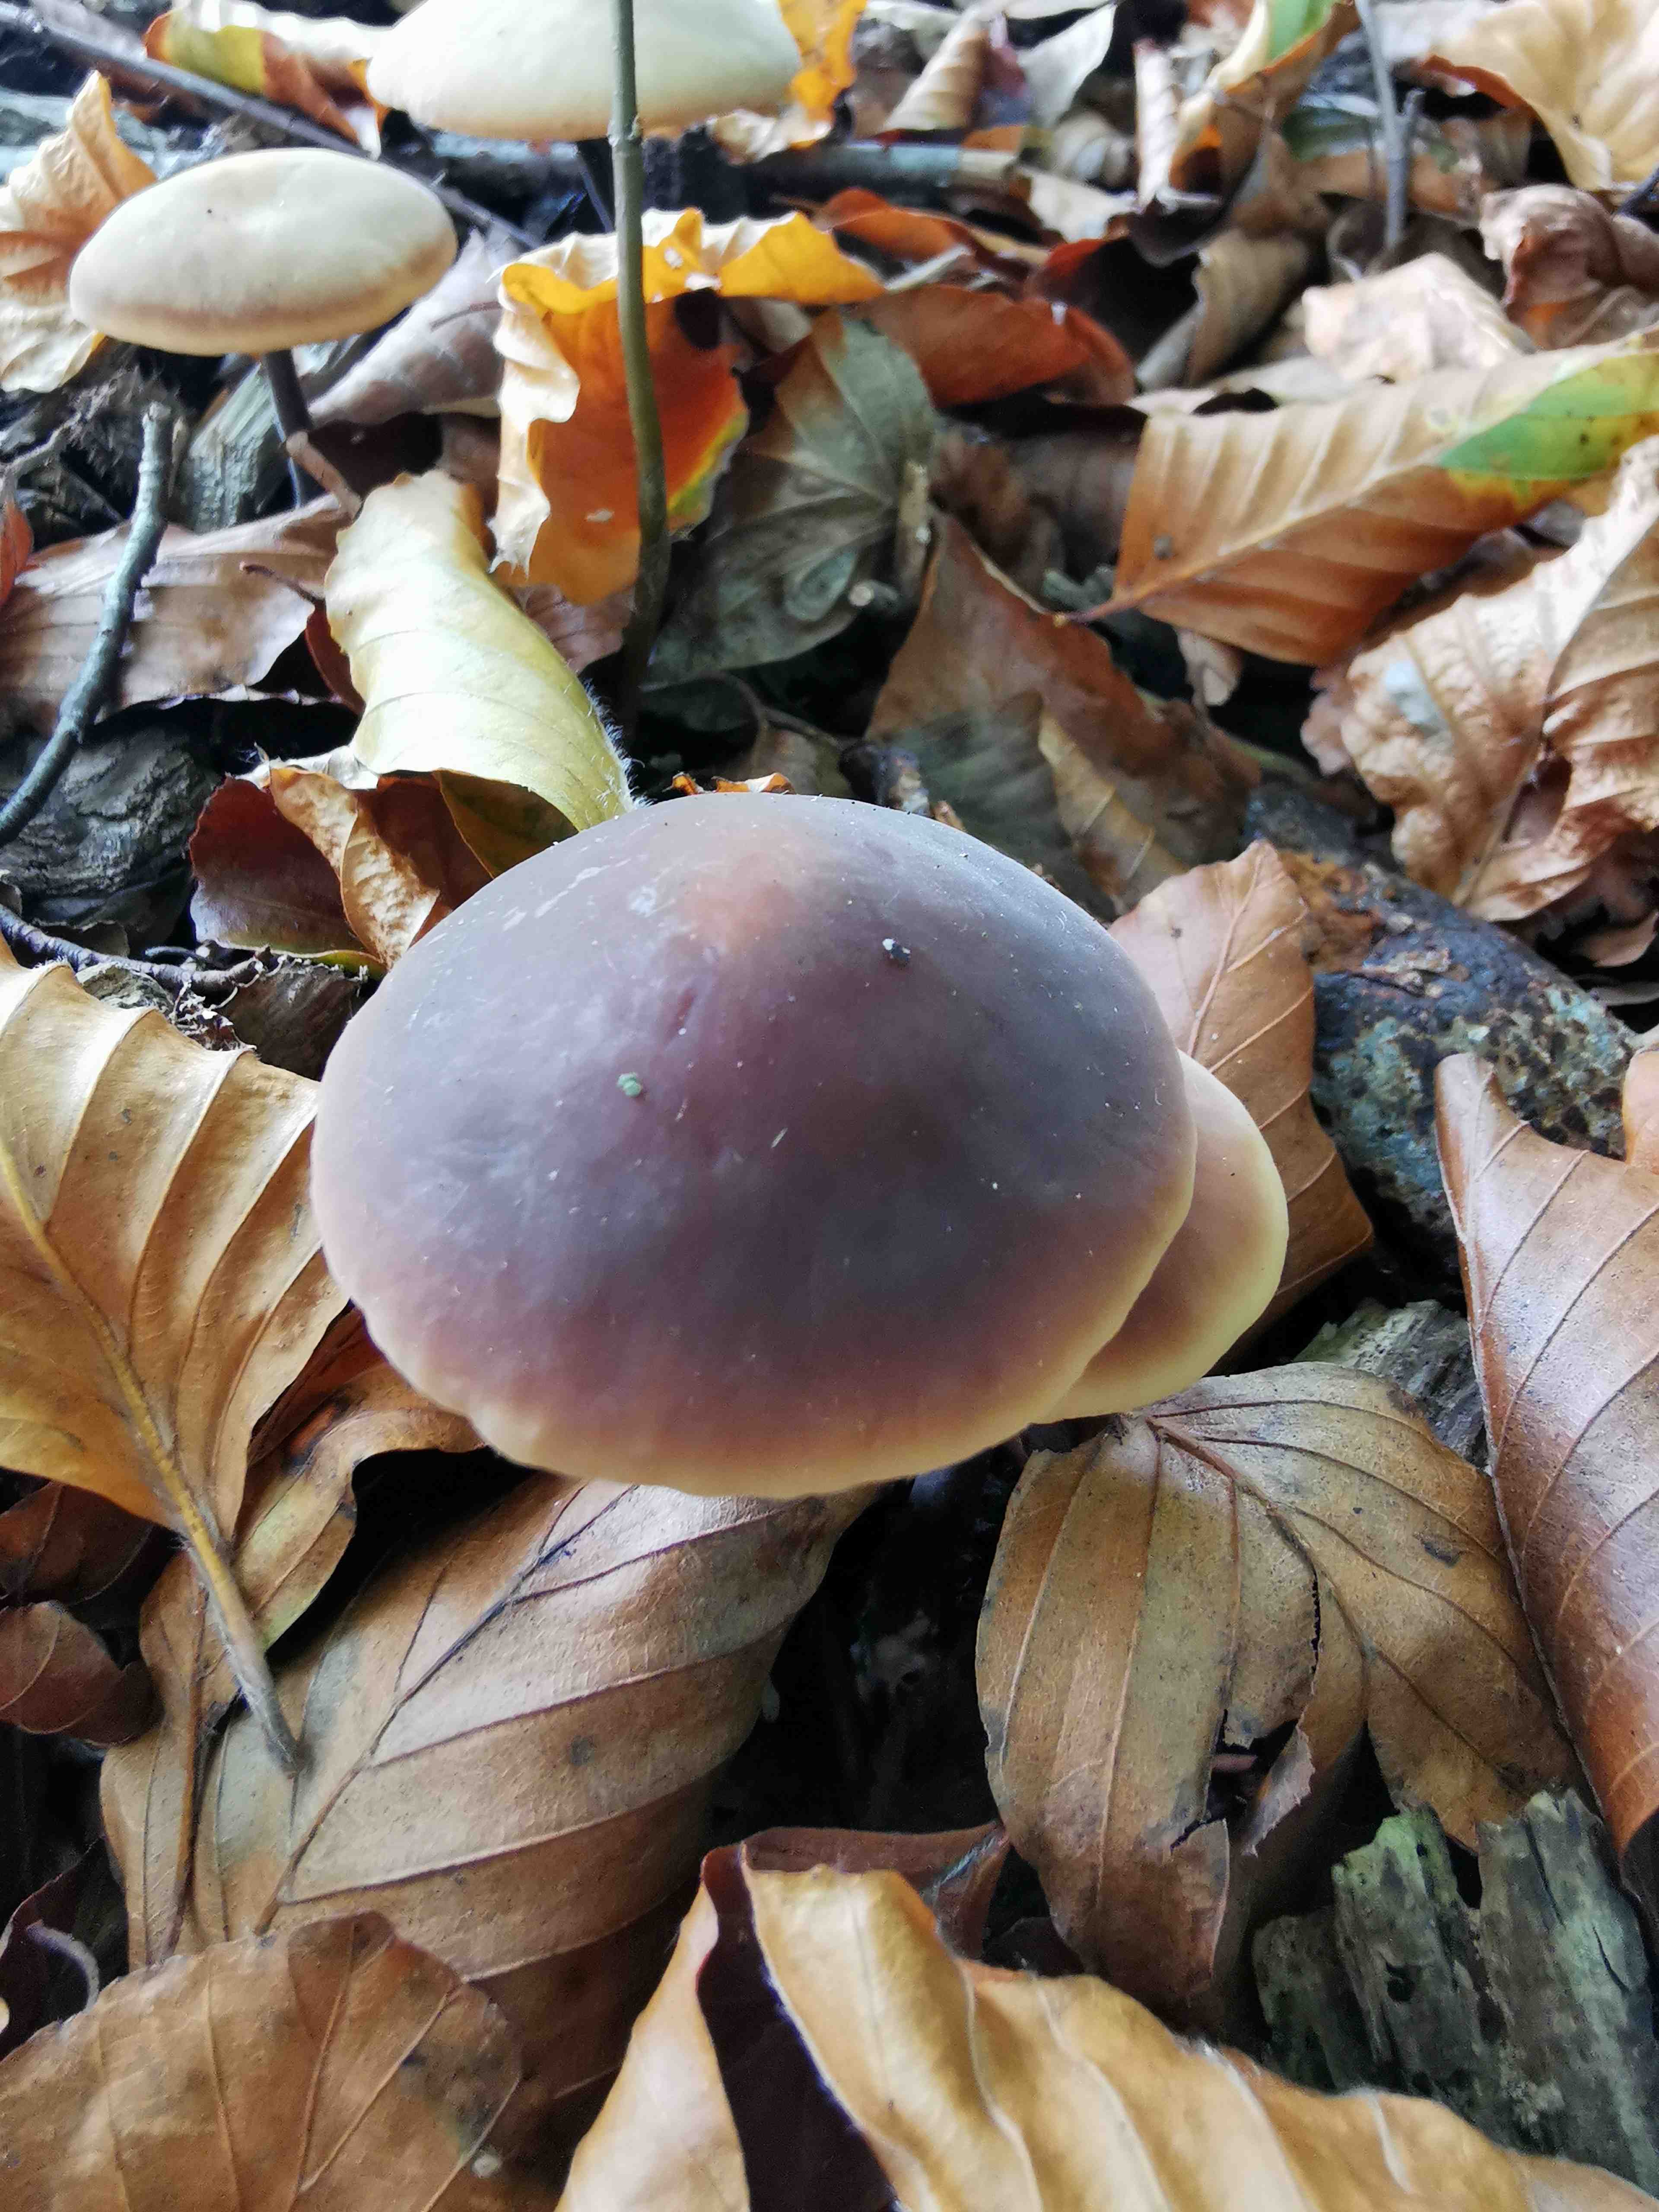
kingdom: Fungi
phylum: Basidiomycota
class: Agaricomycetes
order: Agaricales
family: Macrocystidiaceae
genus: Macrocystidia
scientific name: Macrocystidia cucumis
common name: agurkehat
